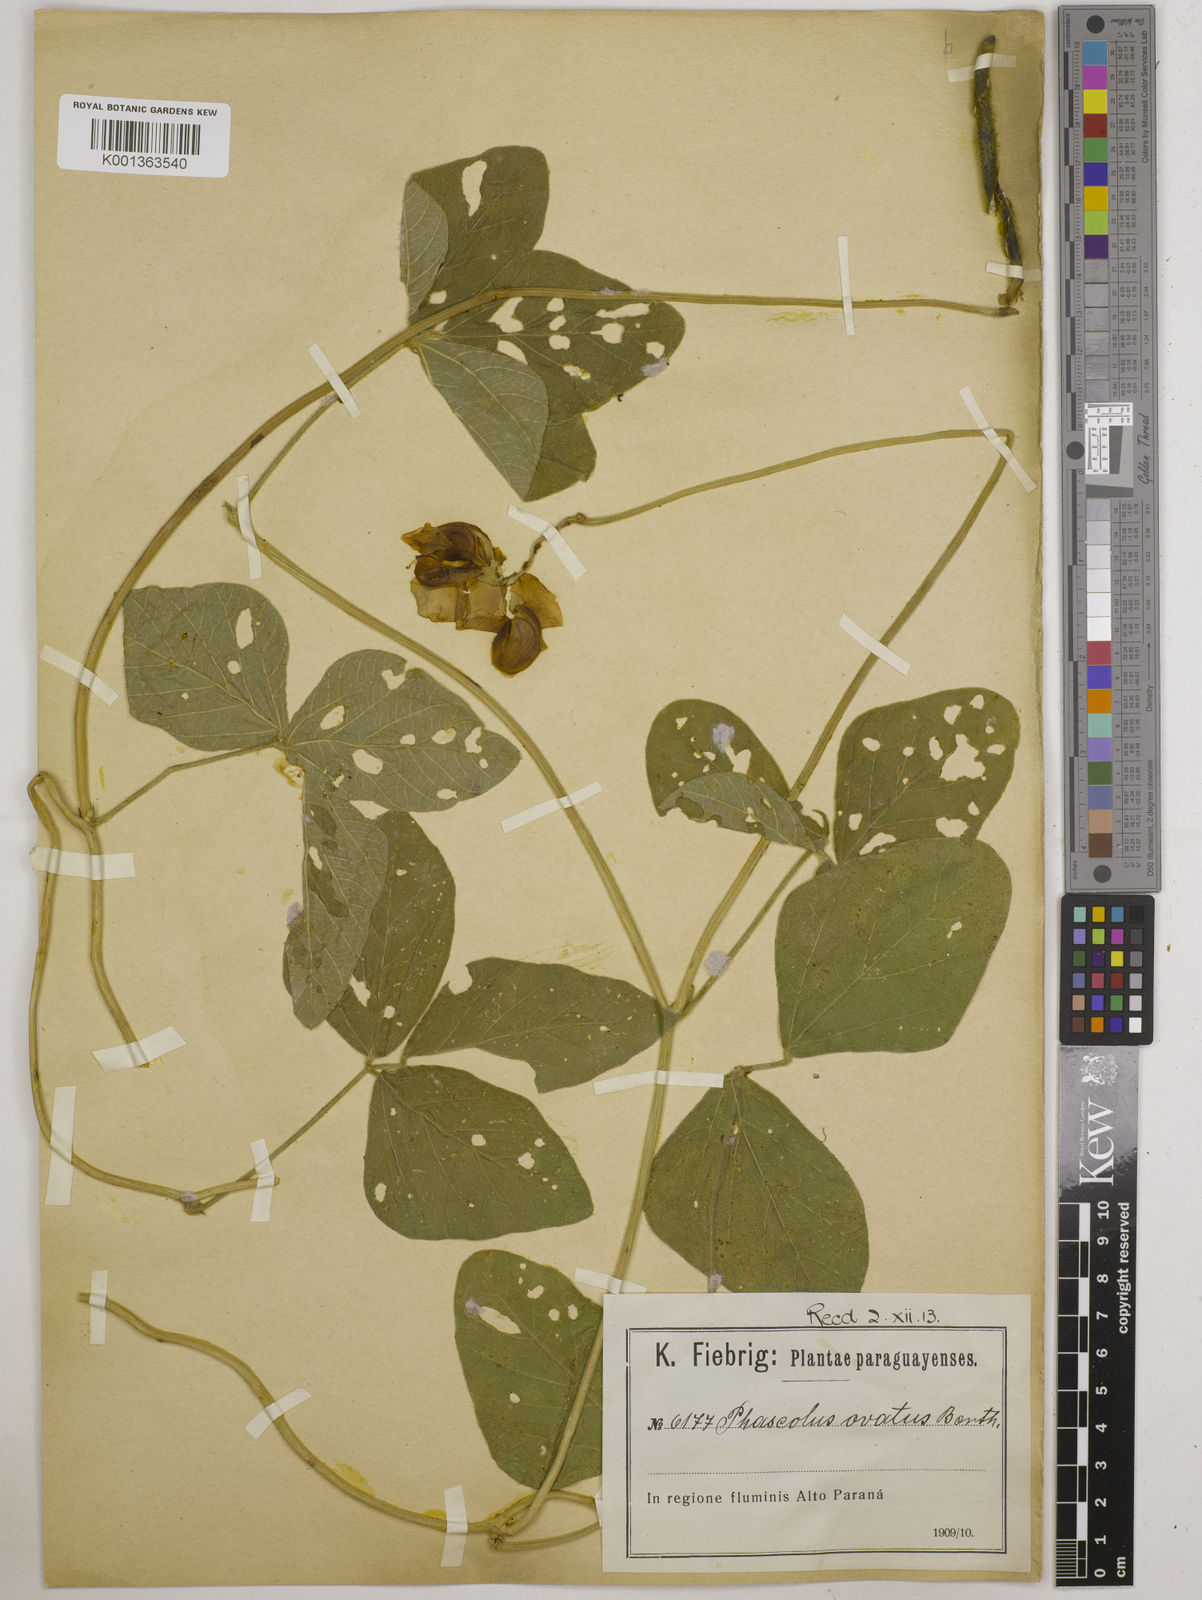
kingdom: Plantae
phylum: Tracheophyta
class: Magnoliopsida
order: Fabales
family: Fabaceae
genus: Vigna
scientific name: Vigna lasiocarpa
